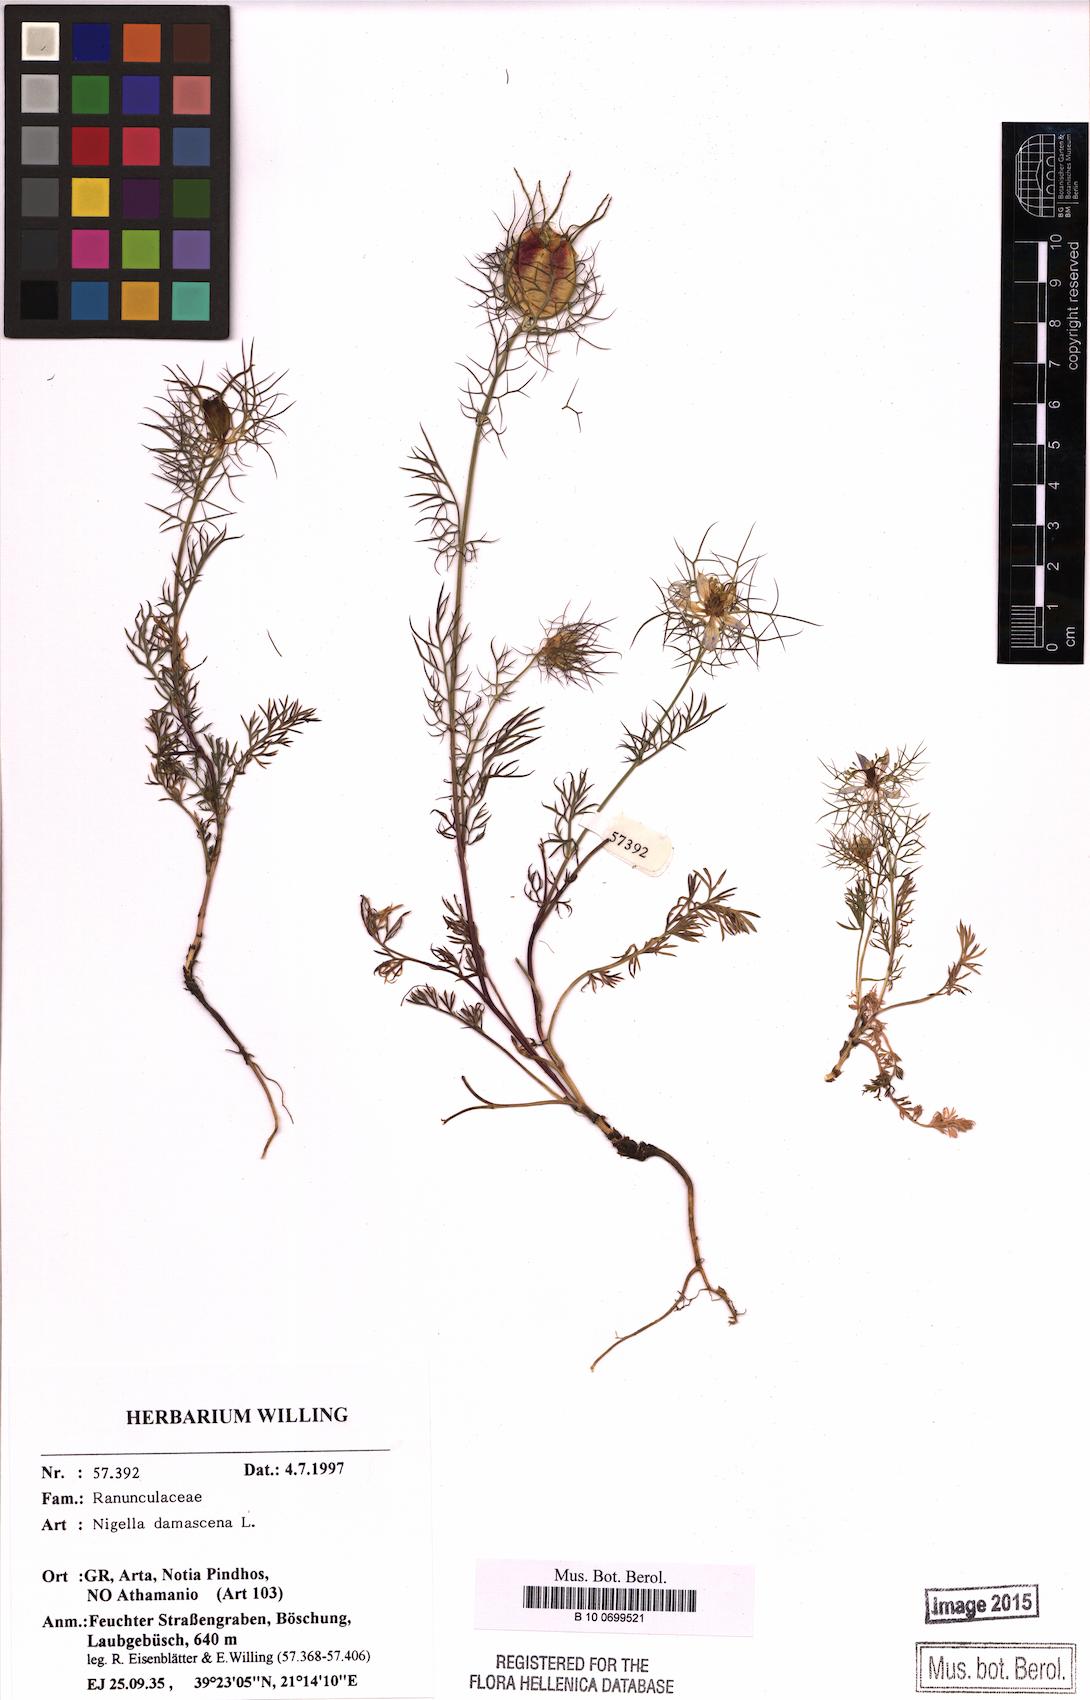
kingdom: Plantae
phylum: Tracheophyta
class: Magnoliopsida
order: Ranunculales
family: Ranunculaceae
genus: Nigella
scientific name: Nigella damascena
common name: Love-in-a-mist
